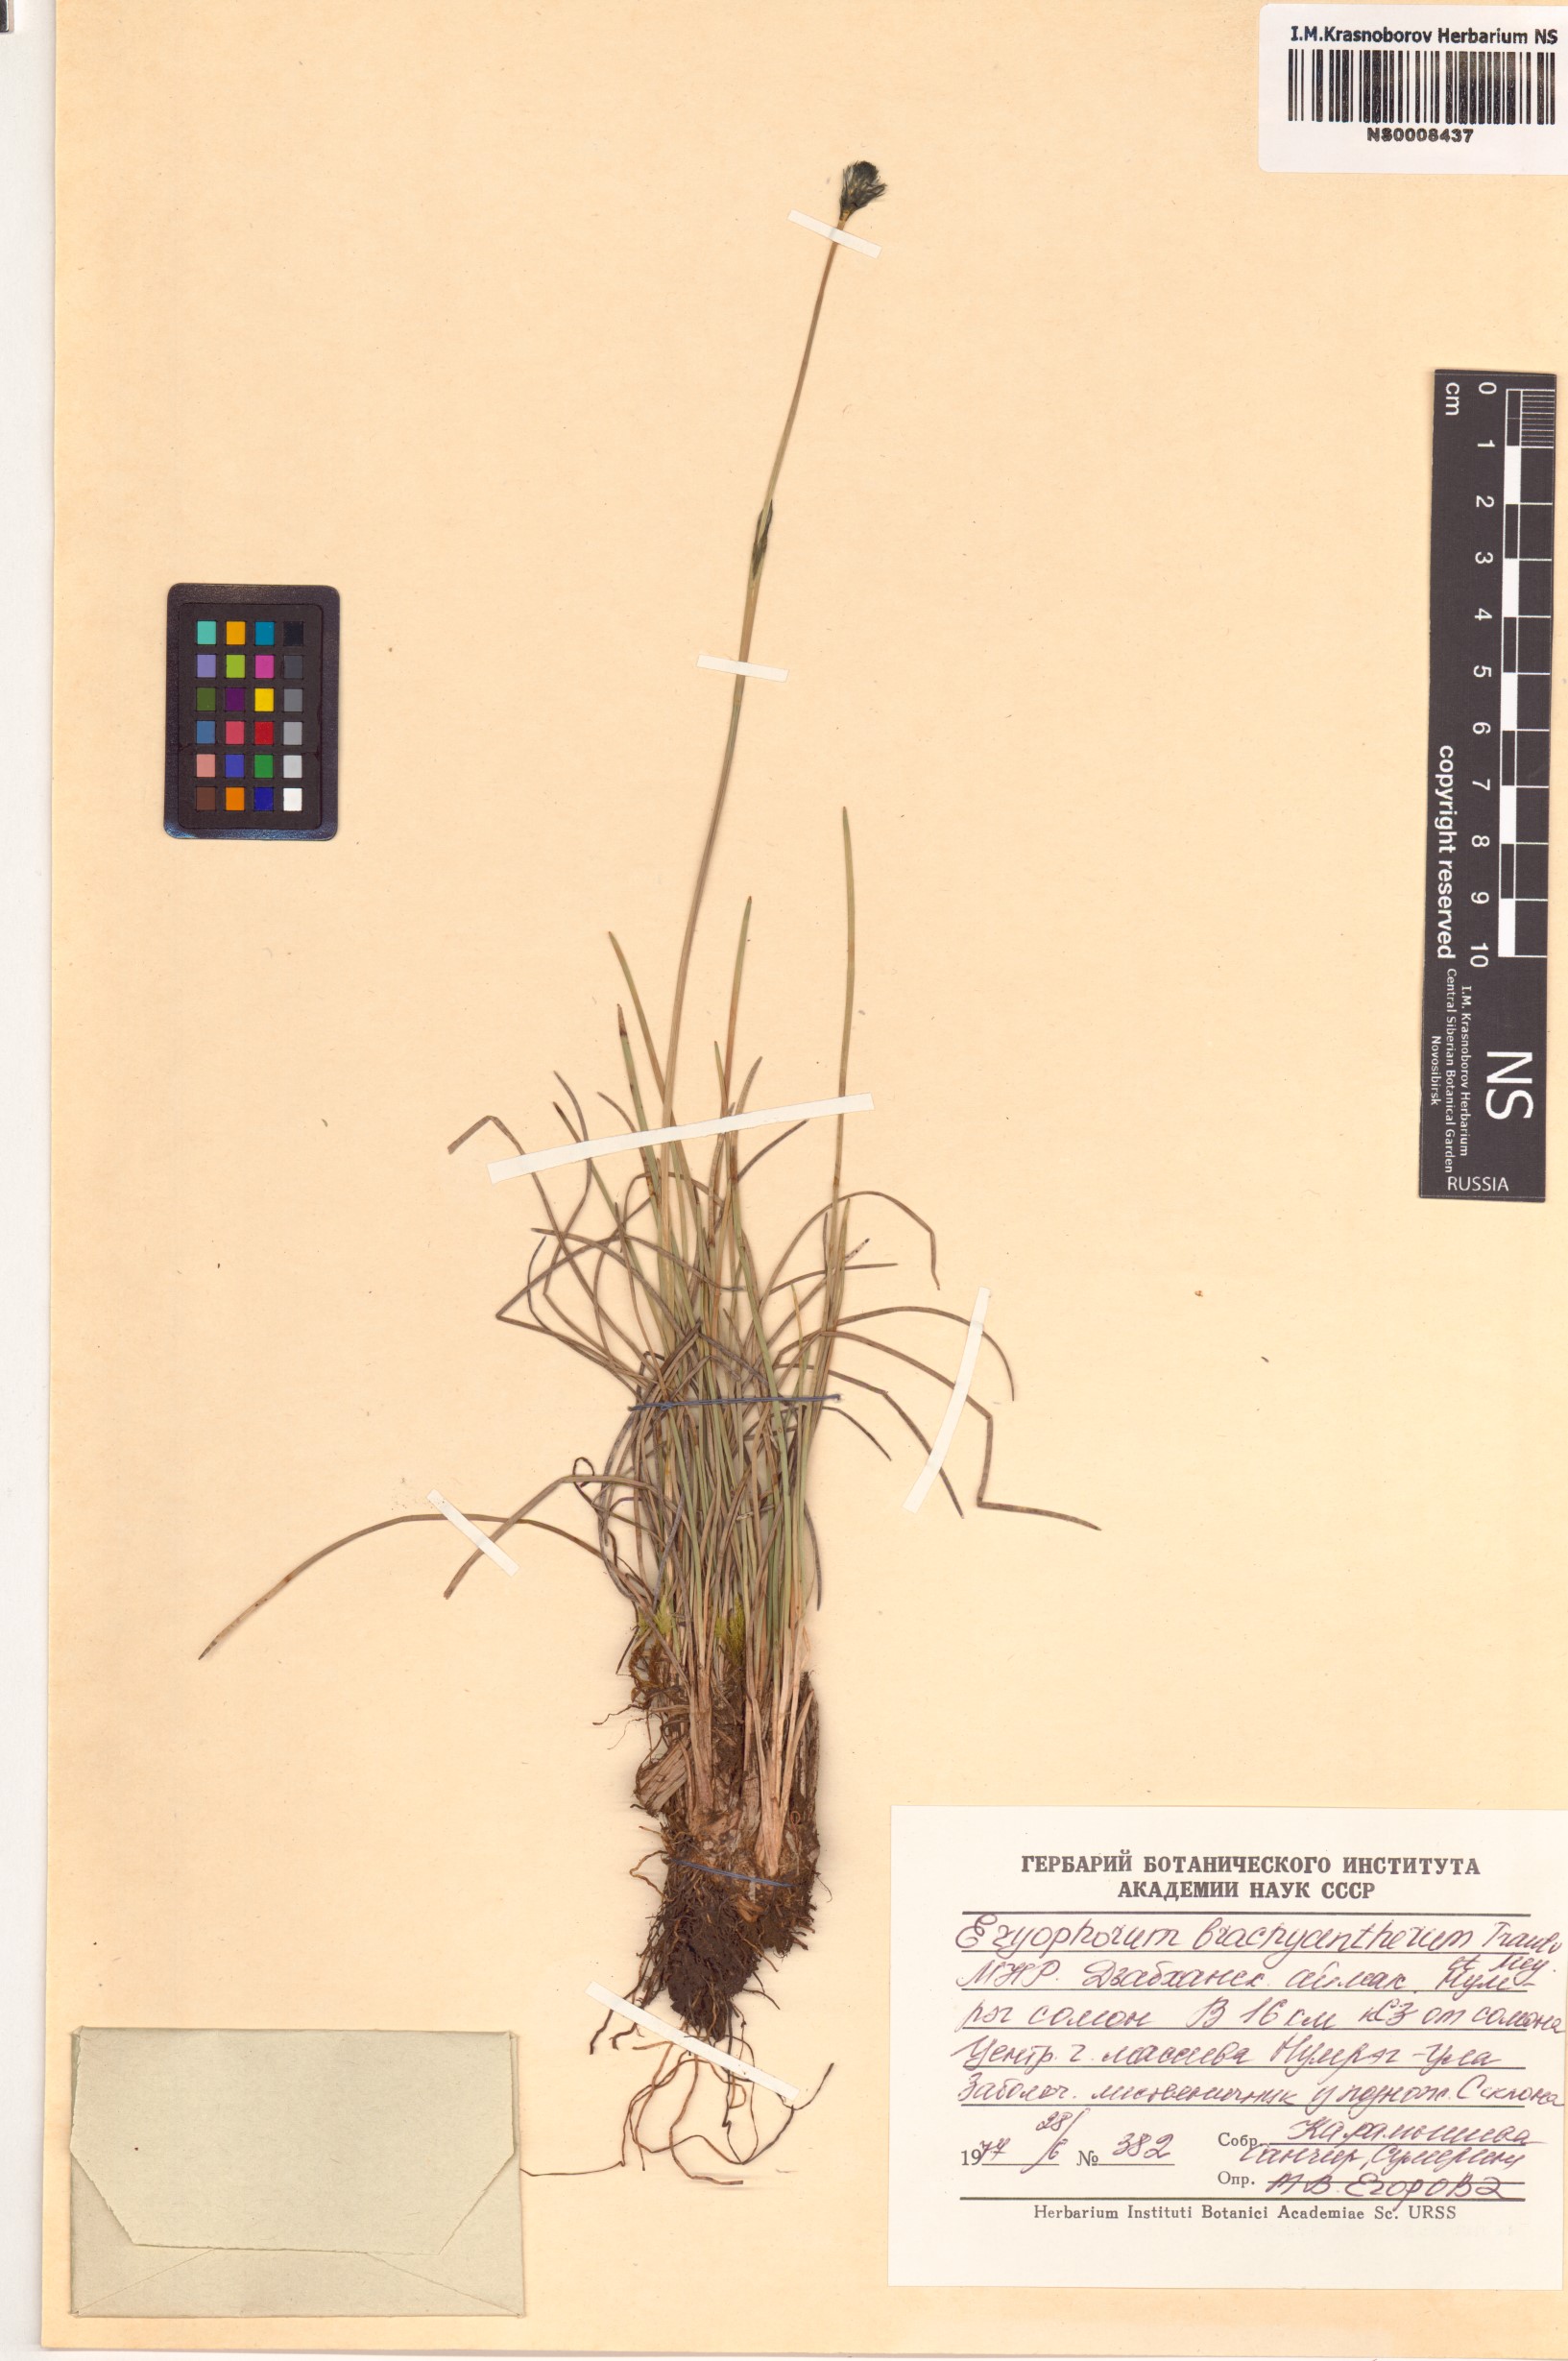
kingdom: Plantae
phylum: Tracheophyta
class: Liliopsida
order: Poales
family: Cyperaceae
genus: Eriophorum
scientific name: Eriophorum brachyantherum
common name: Closed-sheathed cottongrass
